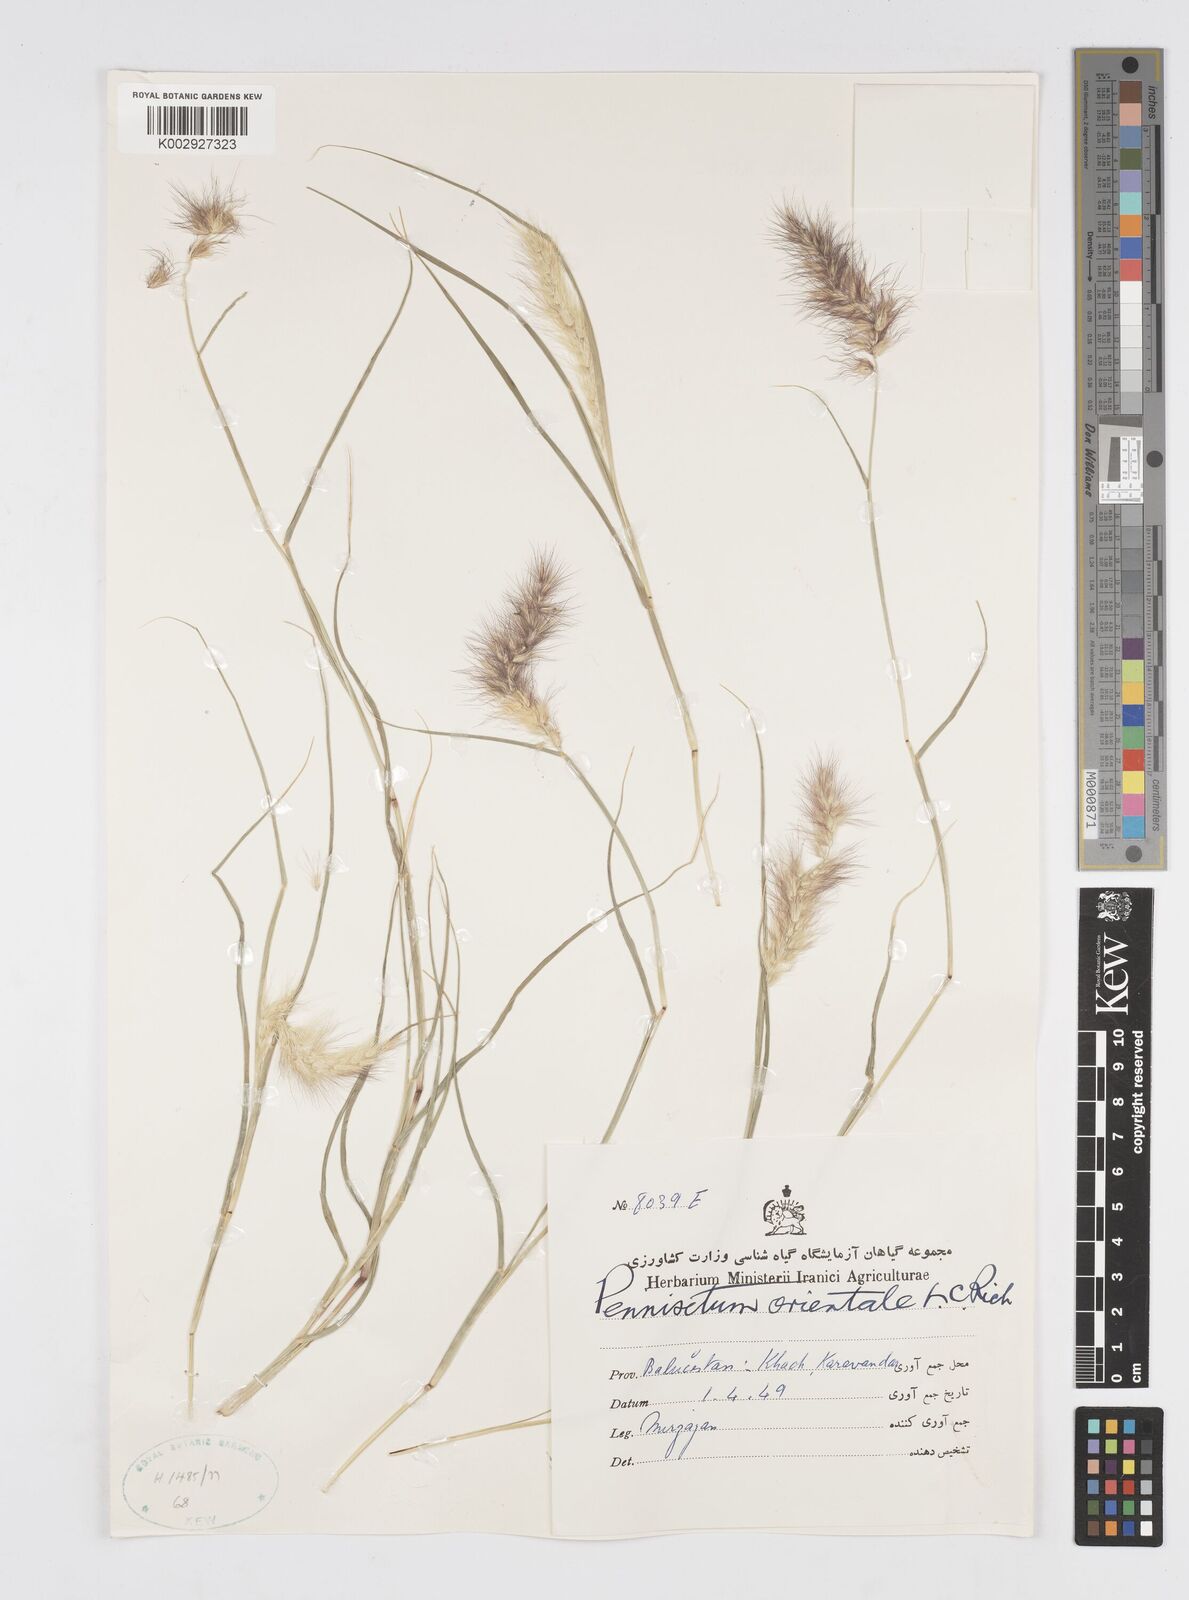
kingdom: Plantae
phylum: Tracheophyta
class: Liliopsida
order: Poales
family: Poaceae
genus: Cenchrus
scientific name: Cenchrus ciliaris
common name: Buffelgrass
